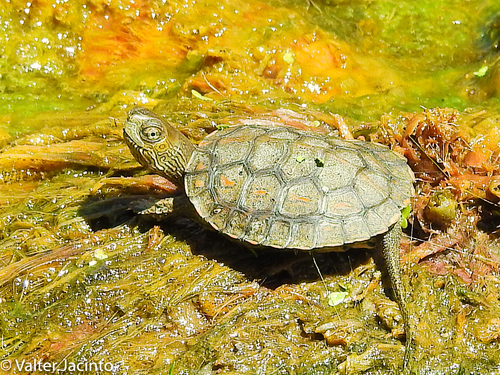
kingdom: Animalia
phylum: Chordata
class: Testudines
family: Geoemydidae
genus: Mauremys
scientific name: Mauremys leprosa
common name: Mediterranean pond turtle
